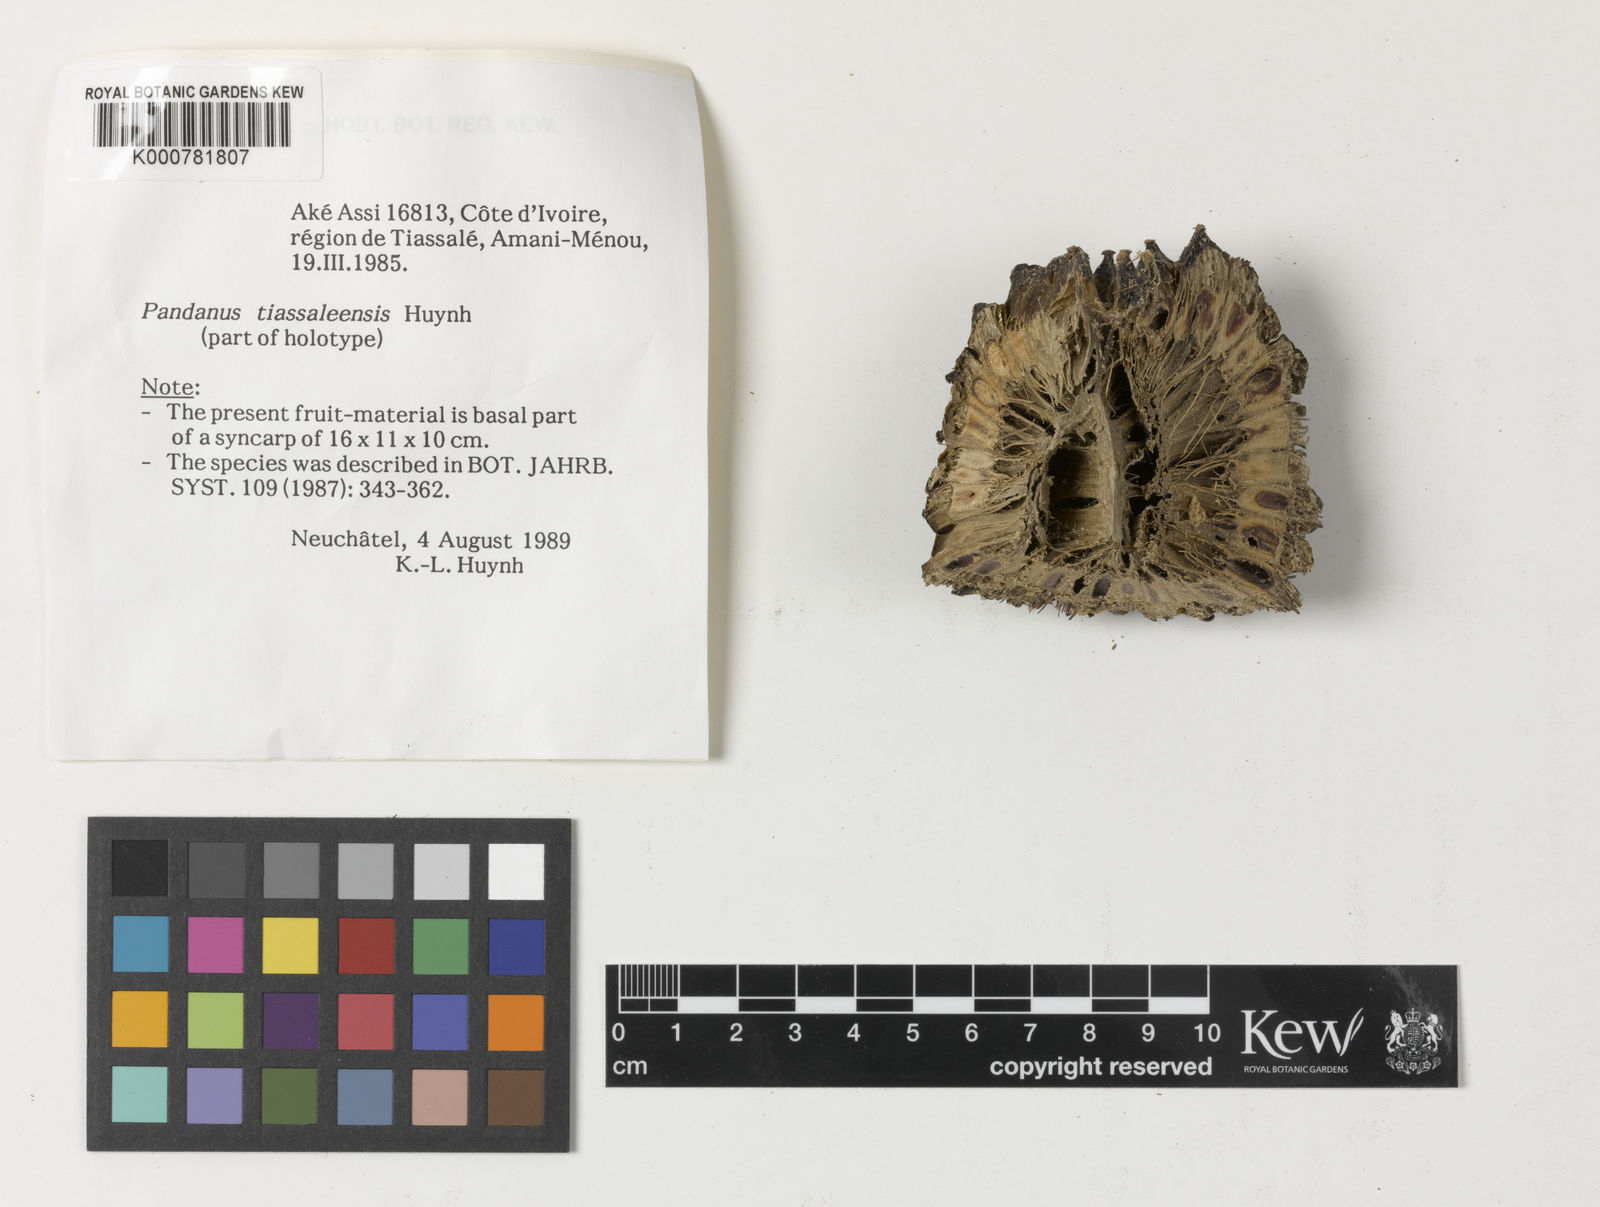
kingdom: Plantae
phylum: Tracheophyta
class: Liliopsida
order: Pandanales
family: Pandanaceae
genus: Pandanus
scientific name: Pandanus tiassaleensis
